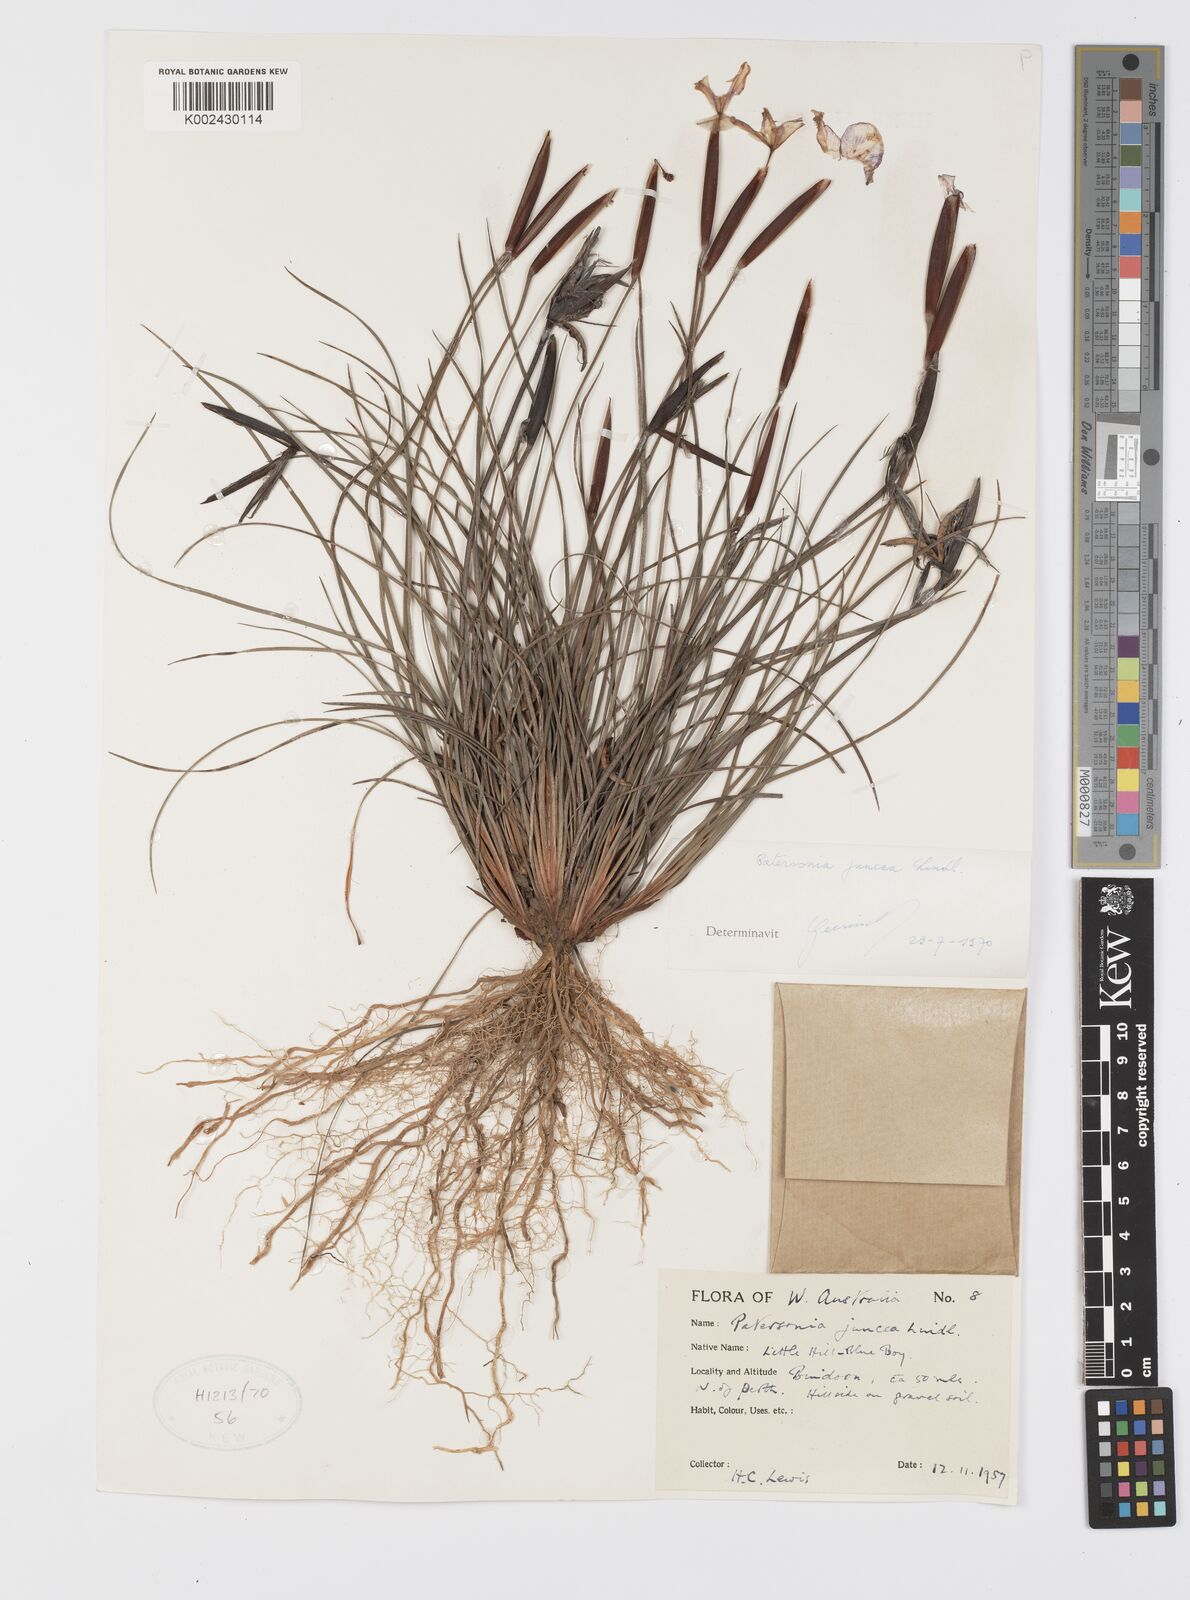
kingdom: Plantae
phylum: Tracheophyta
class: Liliopsida
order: Asparagales
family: Iridaceae
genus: Patersonia
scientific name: Patersonia juncea
